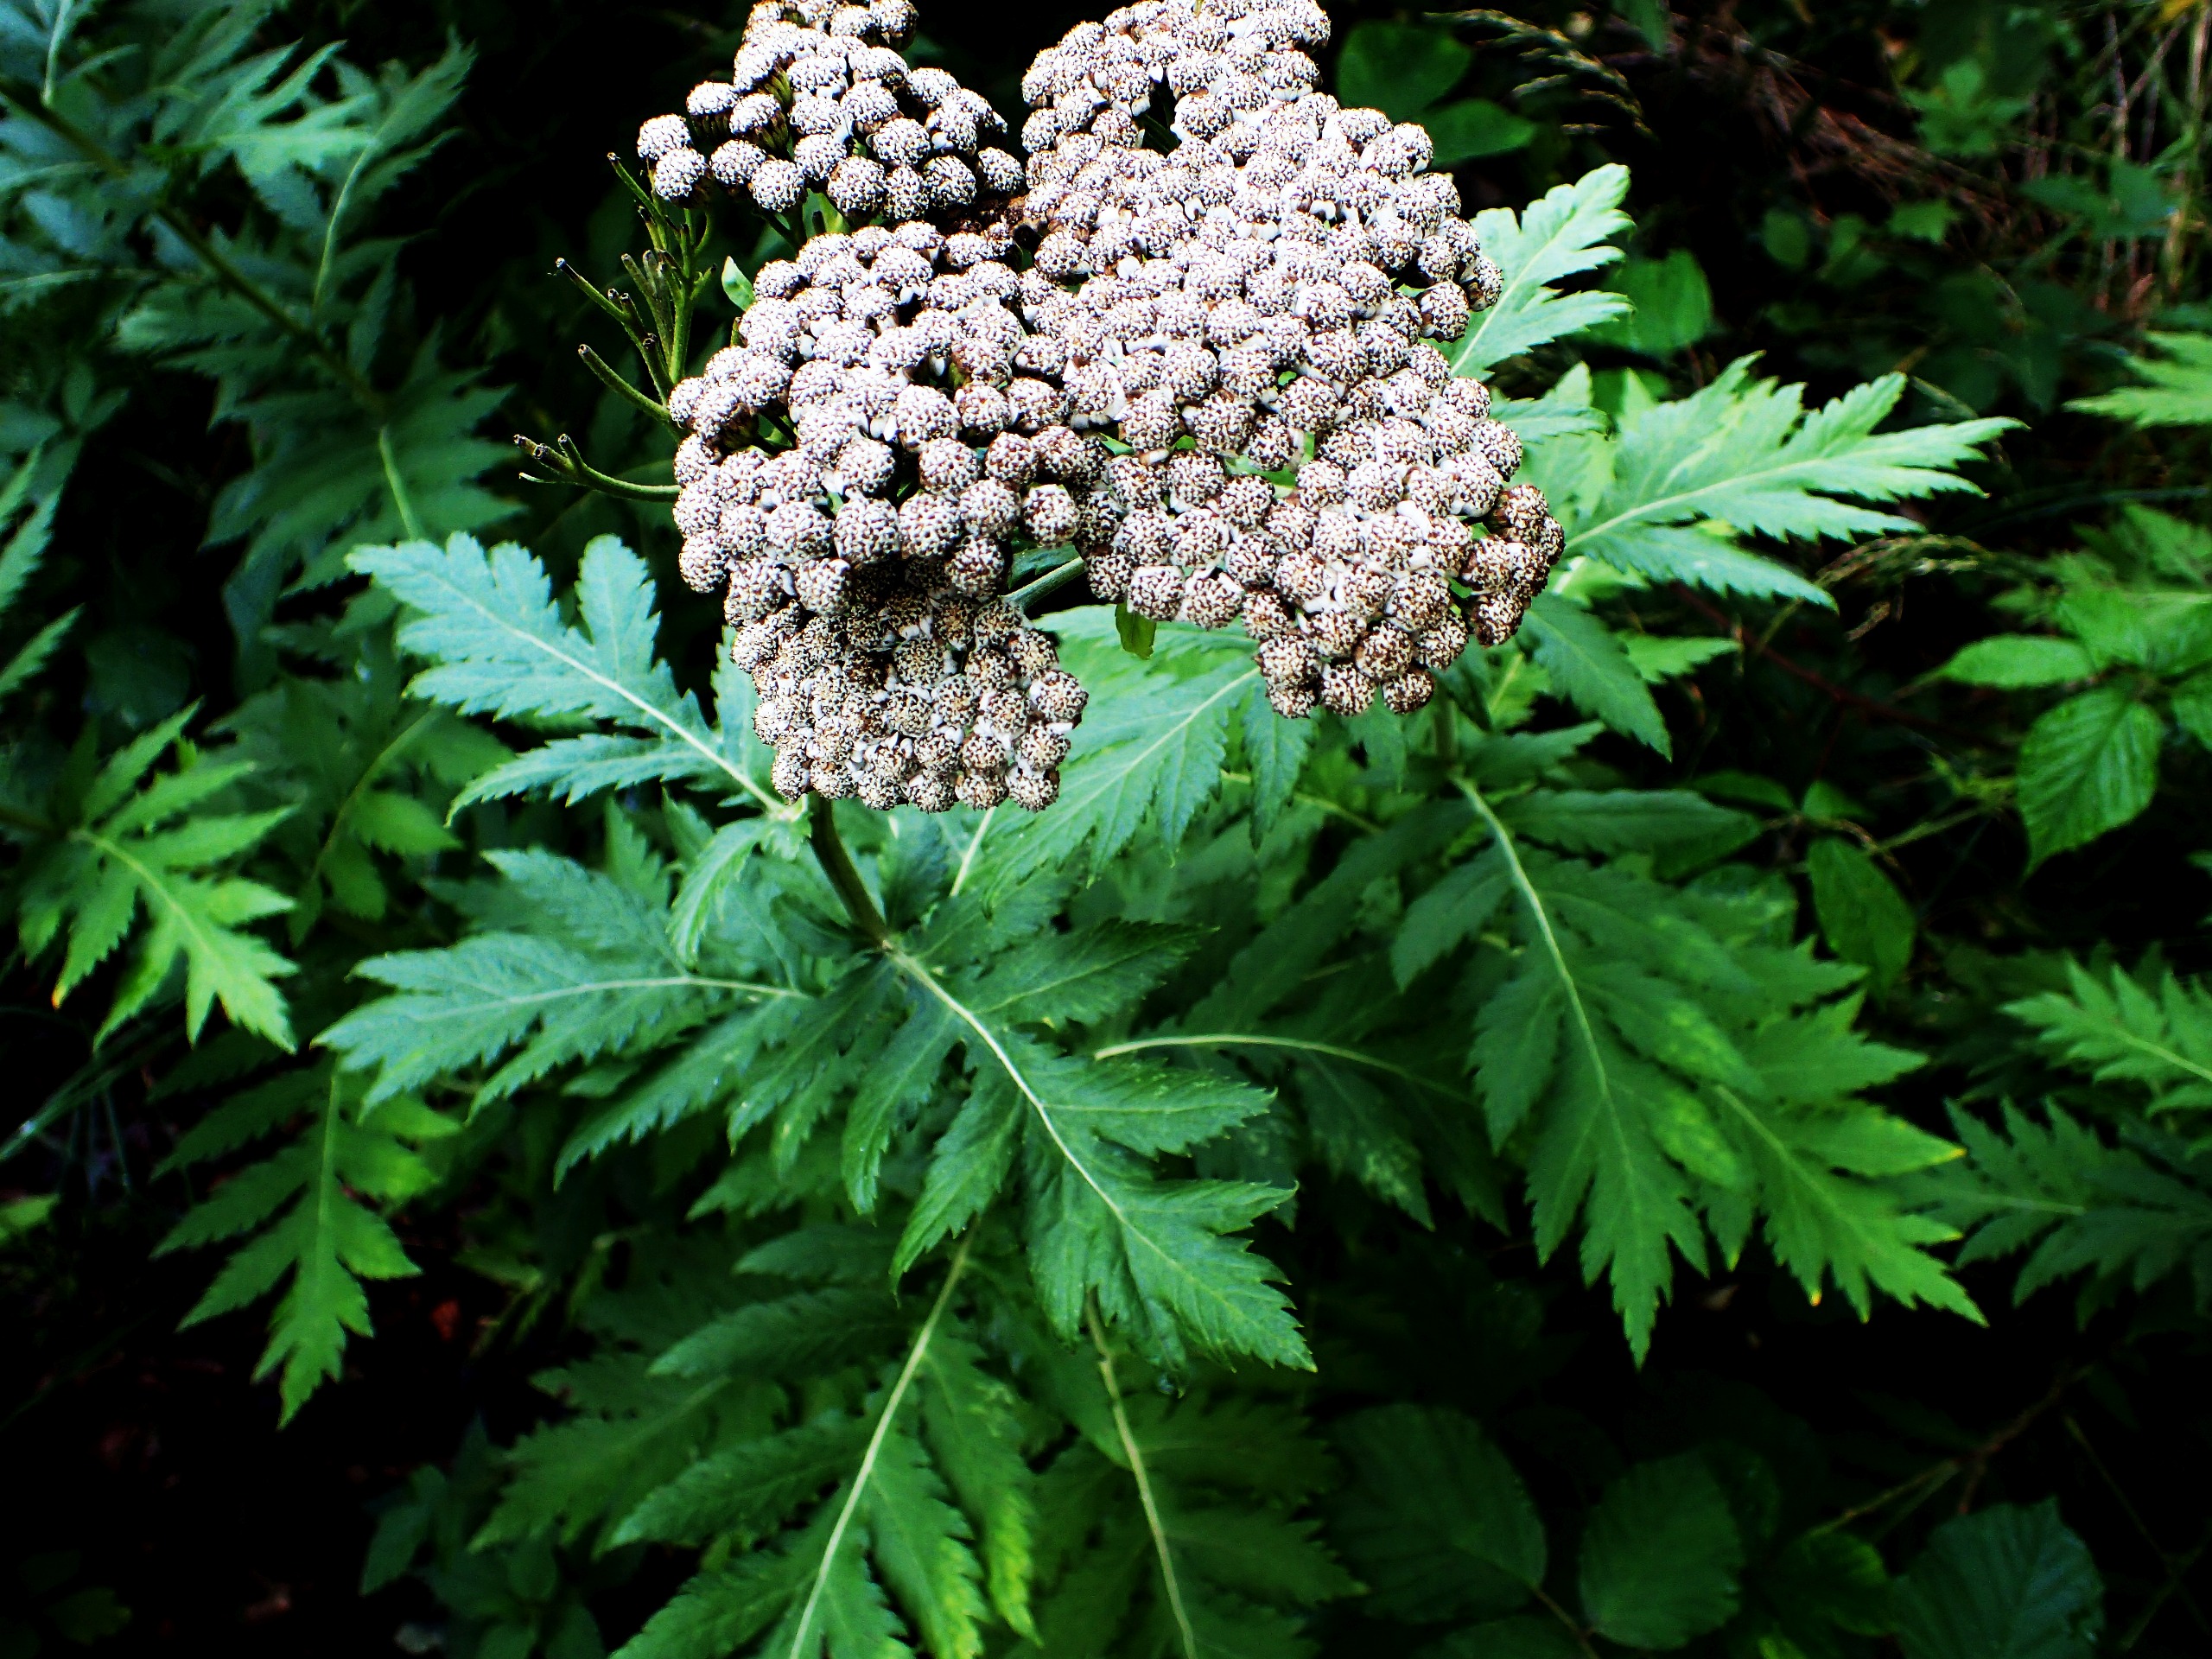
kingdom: Plantae
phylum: Tracheophyta
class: Magnoliopsida
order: Asterales
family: Asteraceae
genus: Tanacetum
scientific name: Tanacetum macrophyllum
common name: Røllike-matrem
